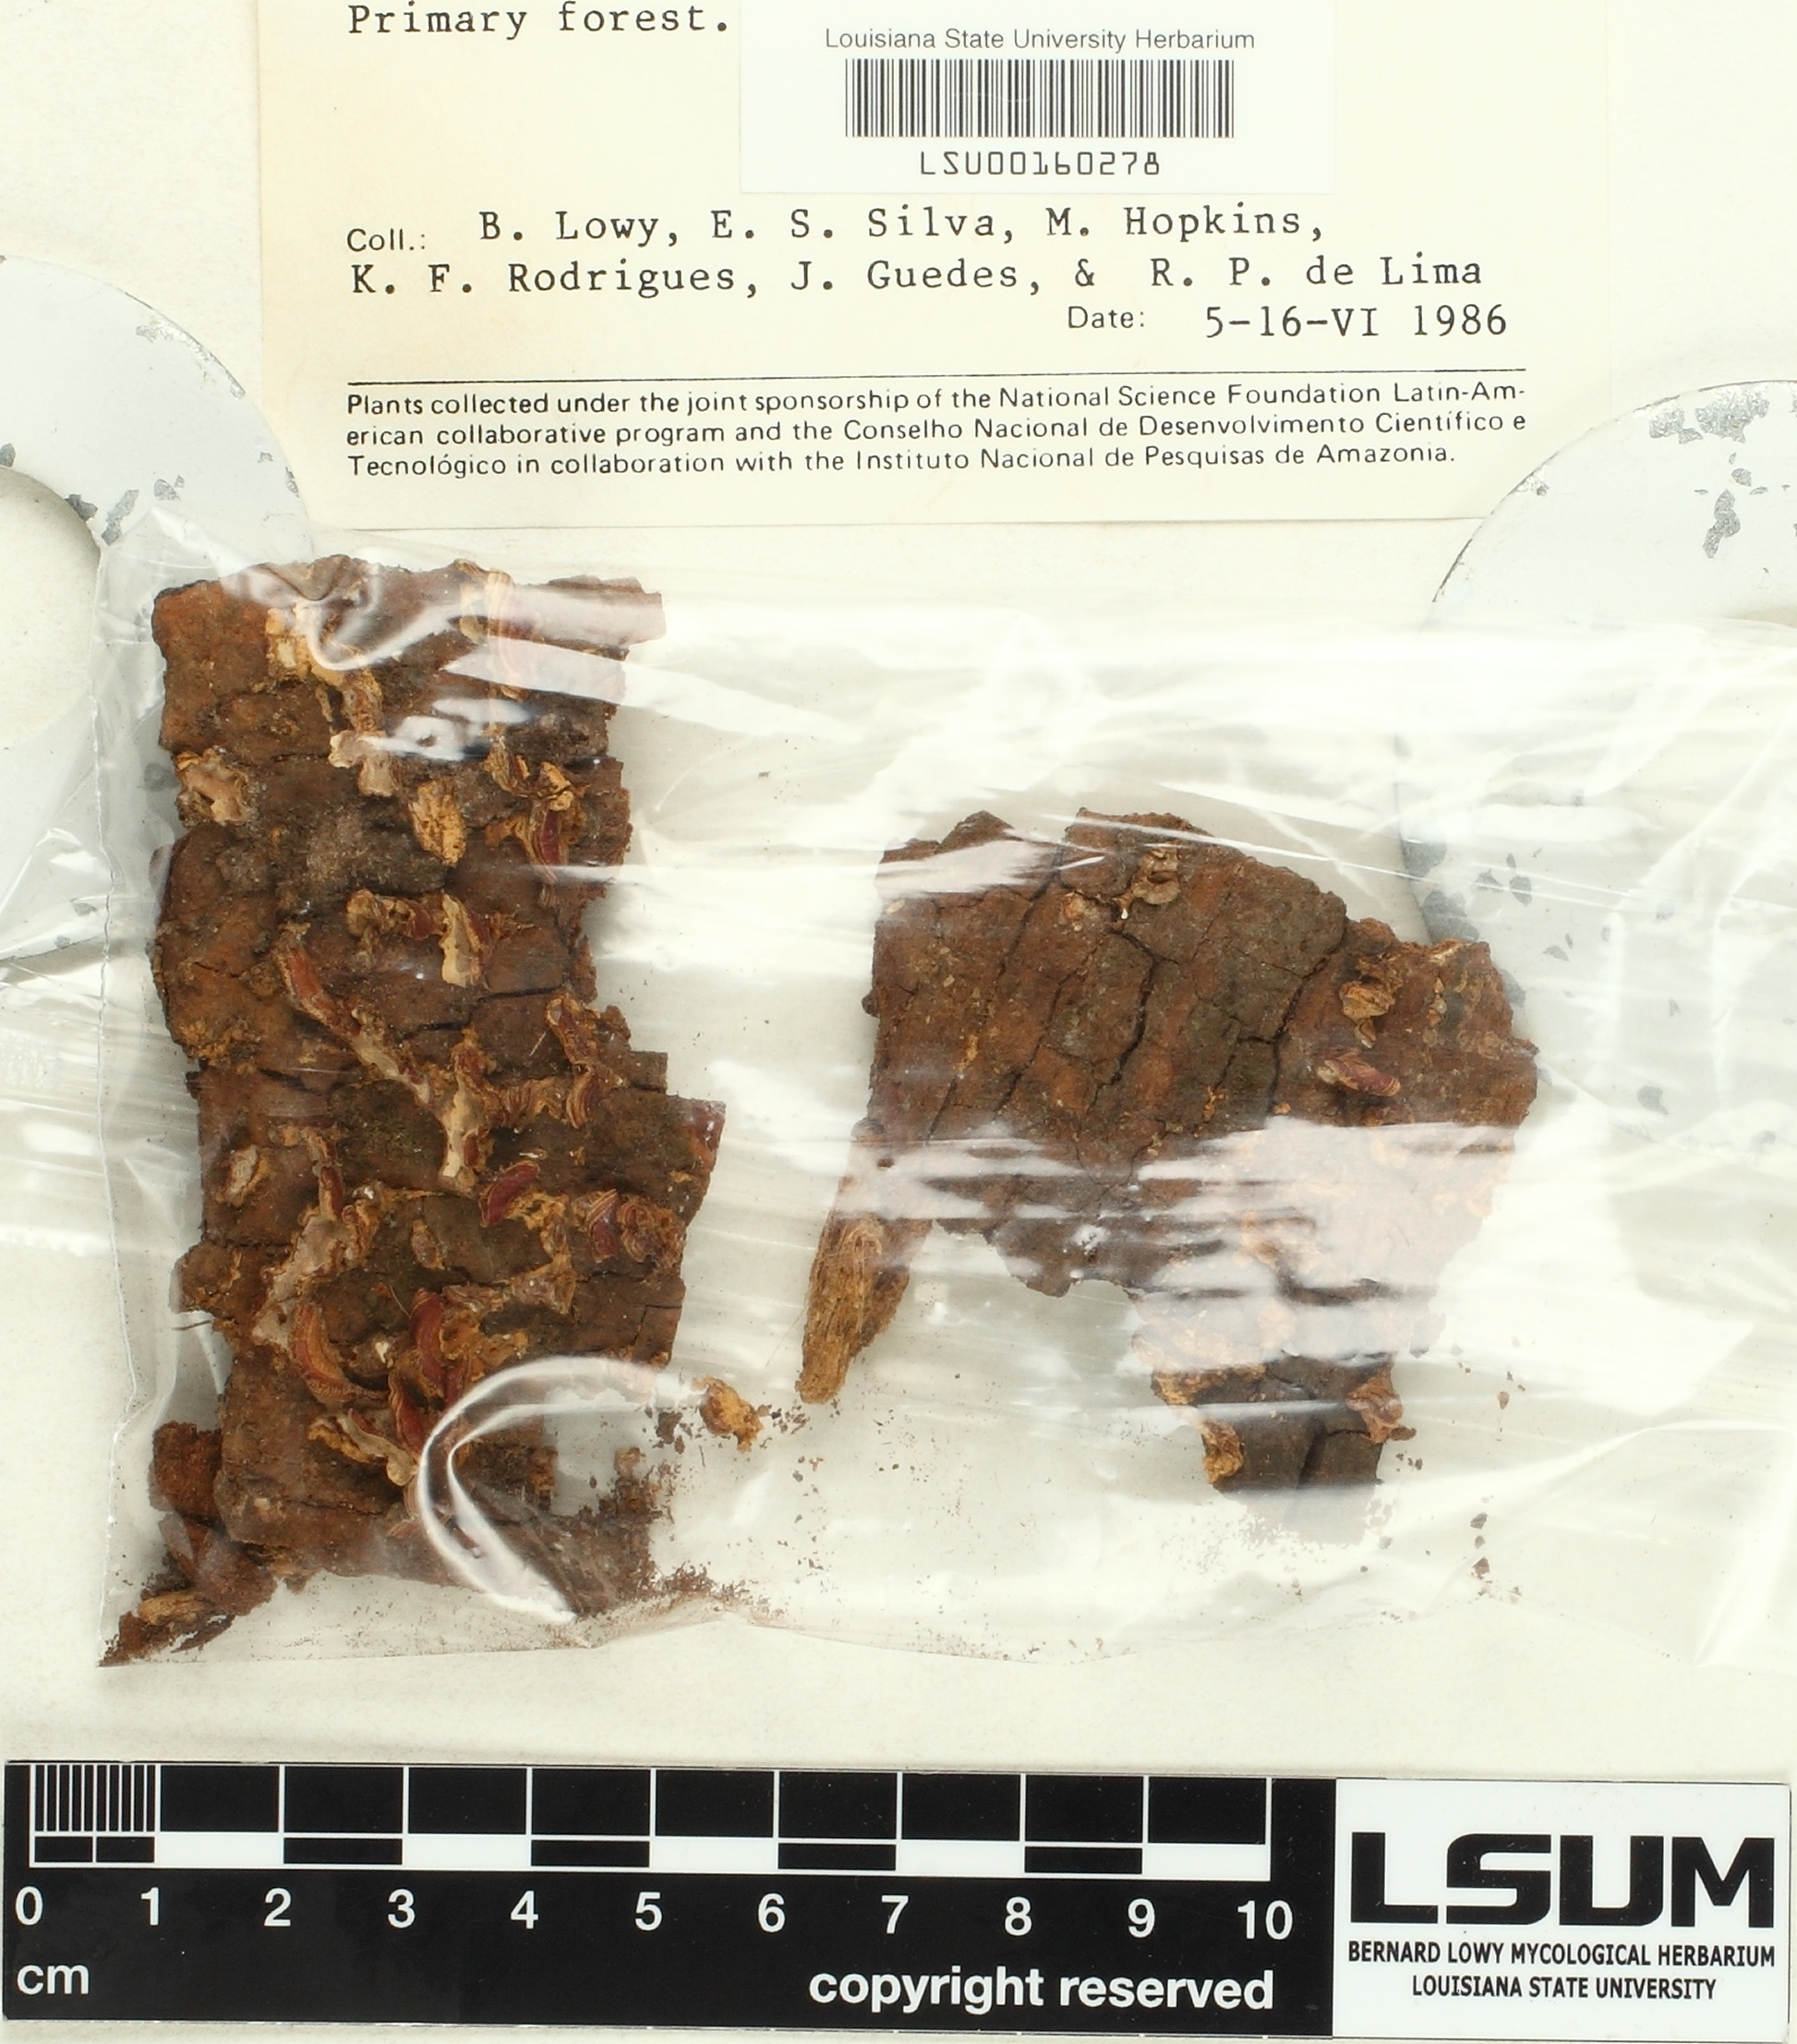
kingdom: Fungi
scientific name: Fungi
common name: Fungi
